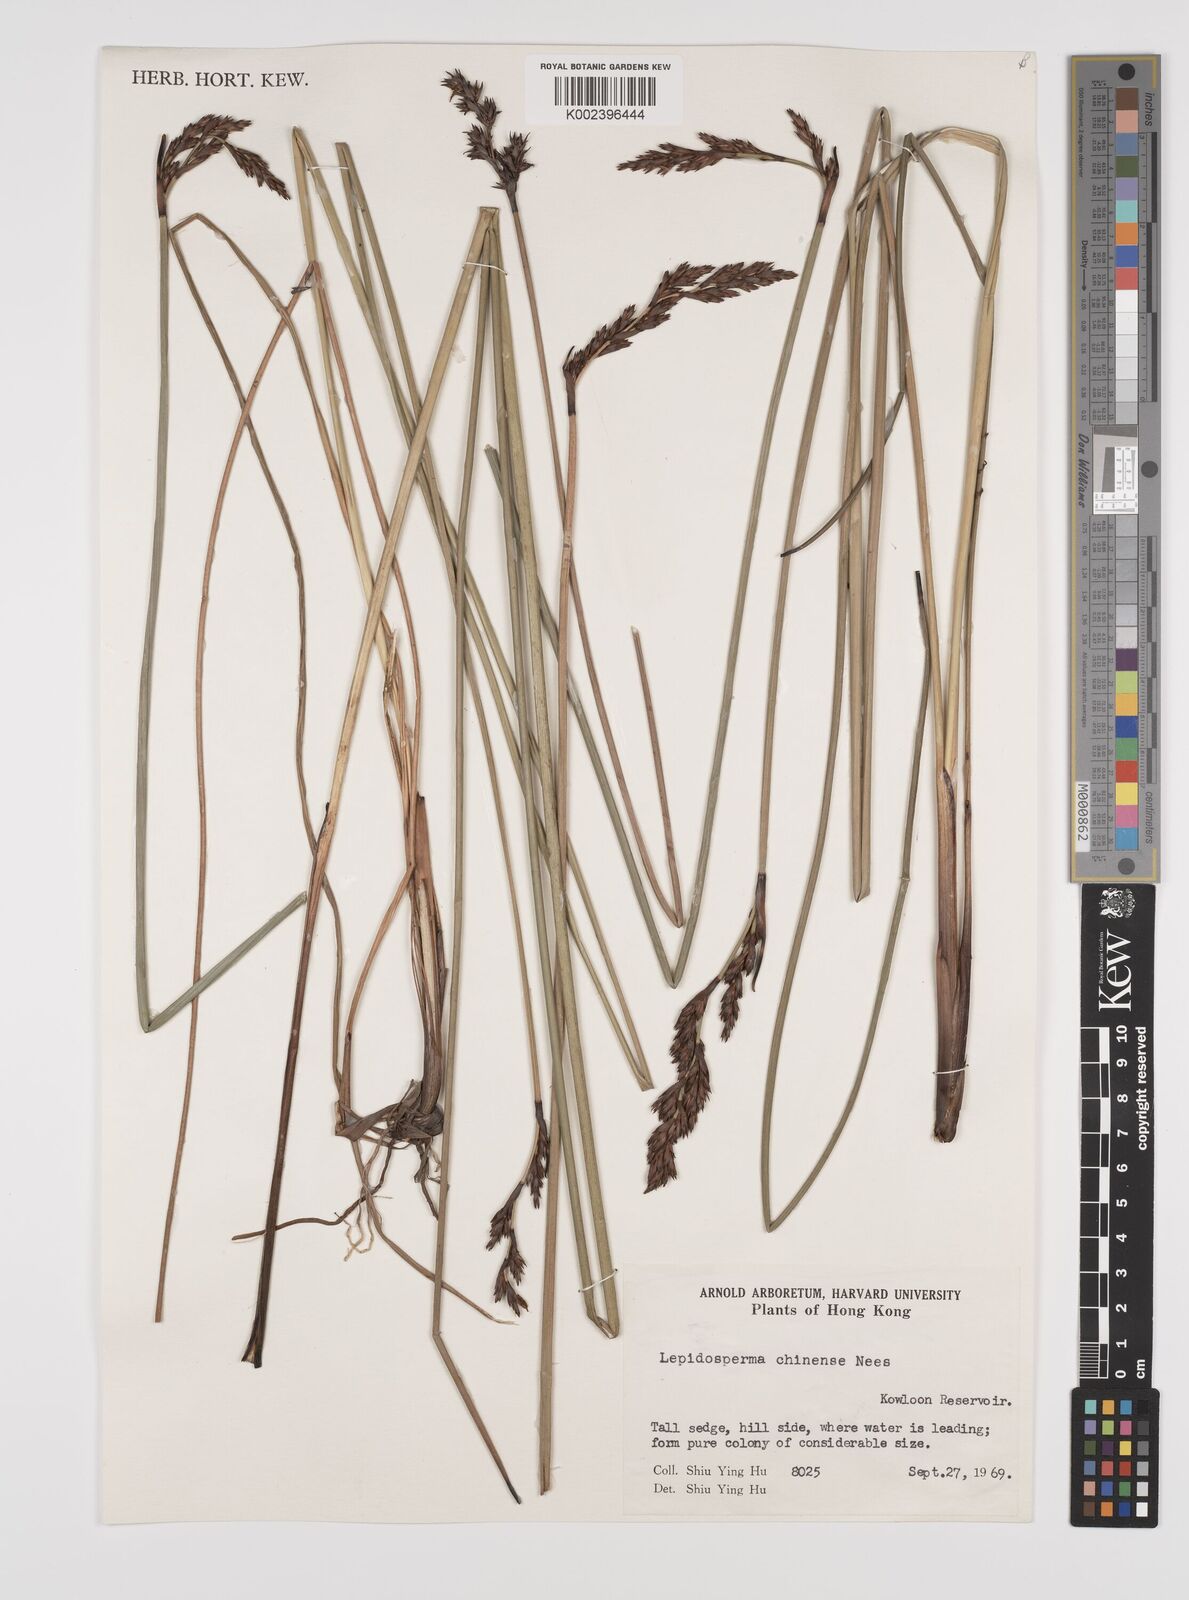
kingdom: Plantae
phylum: Tracheophyta
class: Liliopsida
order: Poales
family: Cyperaceae
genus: Lepidosperma
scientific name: Lepidosperma chinense
